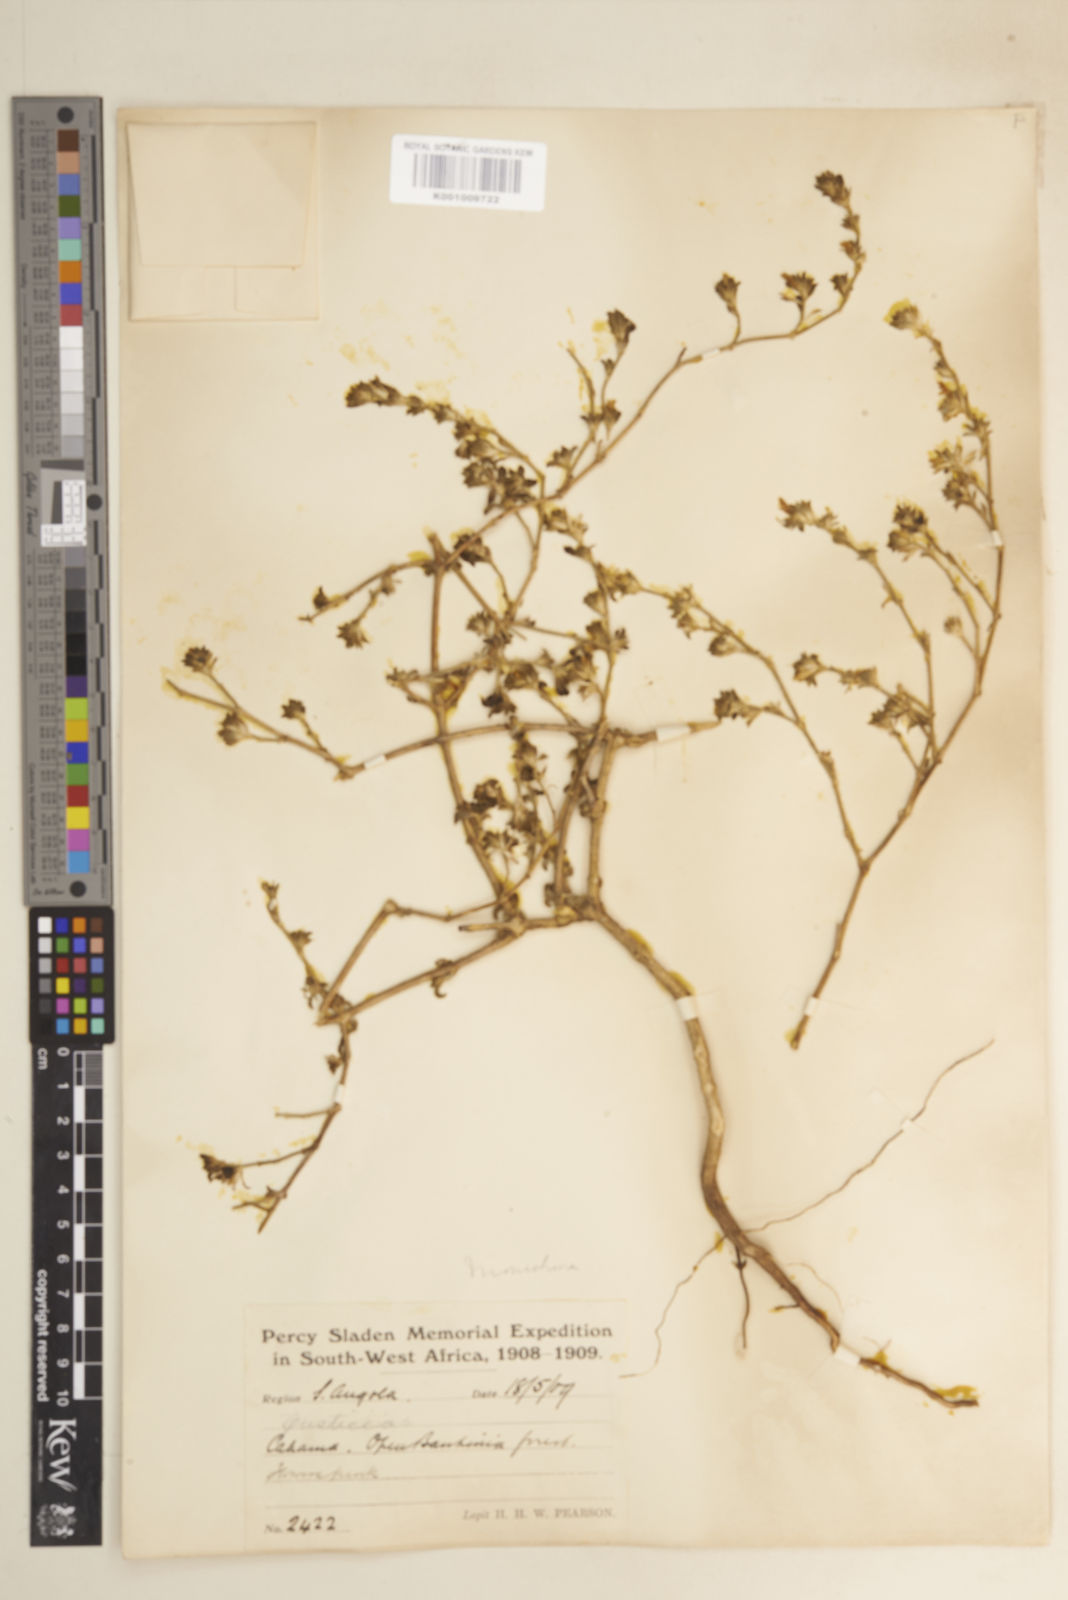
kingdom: Plantae
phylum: Tracheophyta
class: Magnoliopsida
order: Lamiales
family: Acanthaceae
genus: Pogonospermum
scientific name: Pogonospermum
